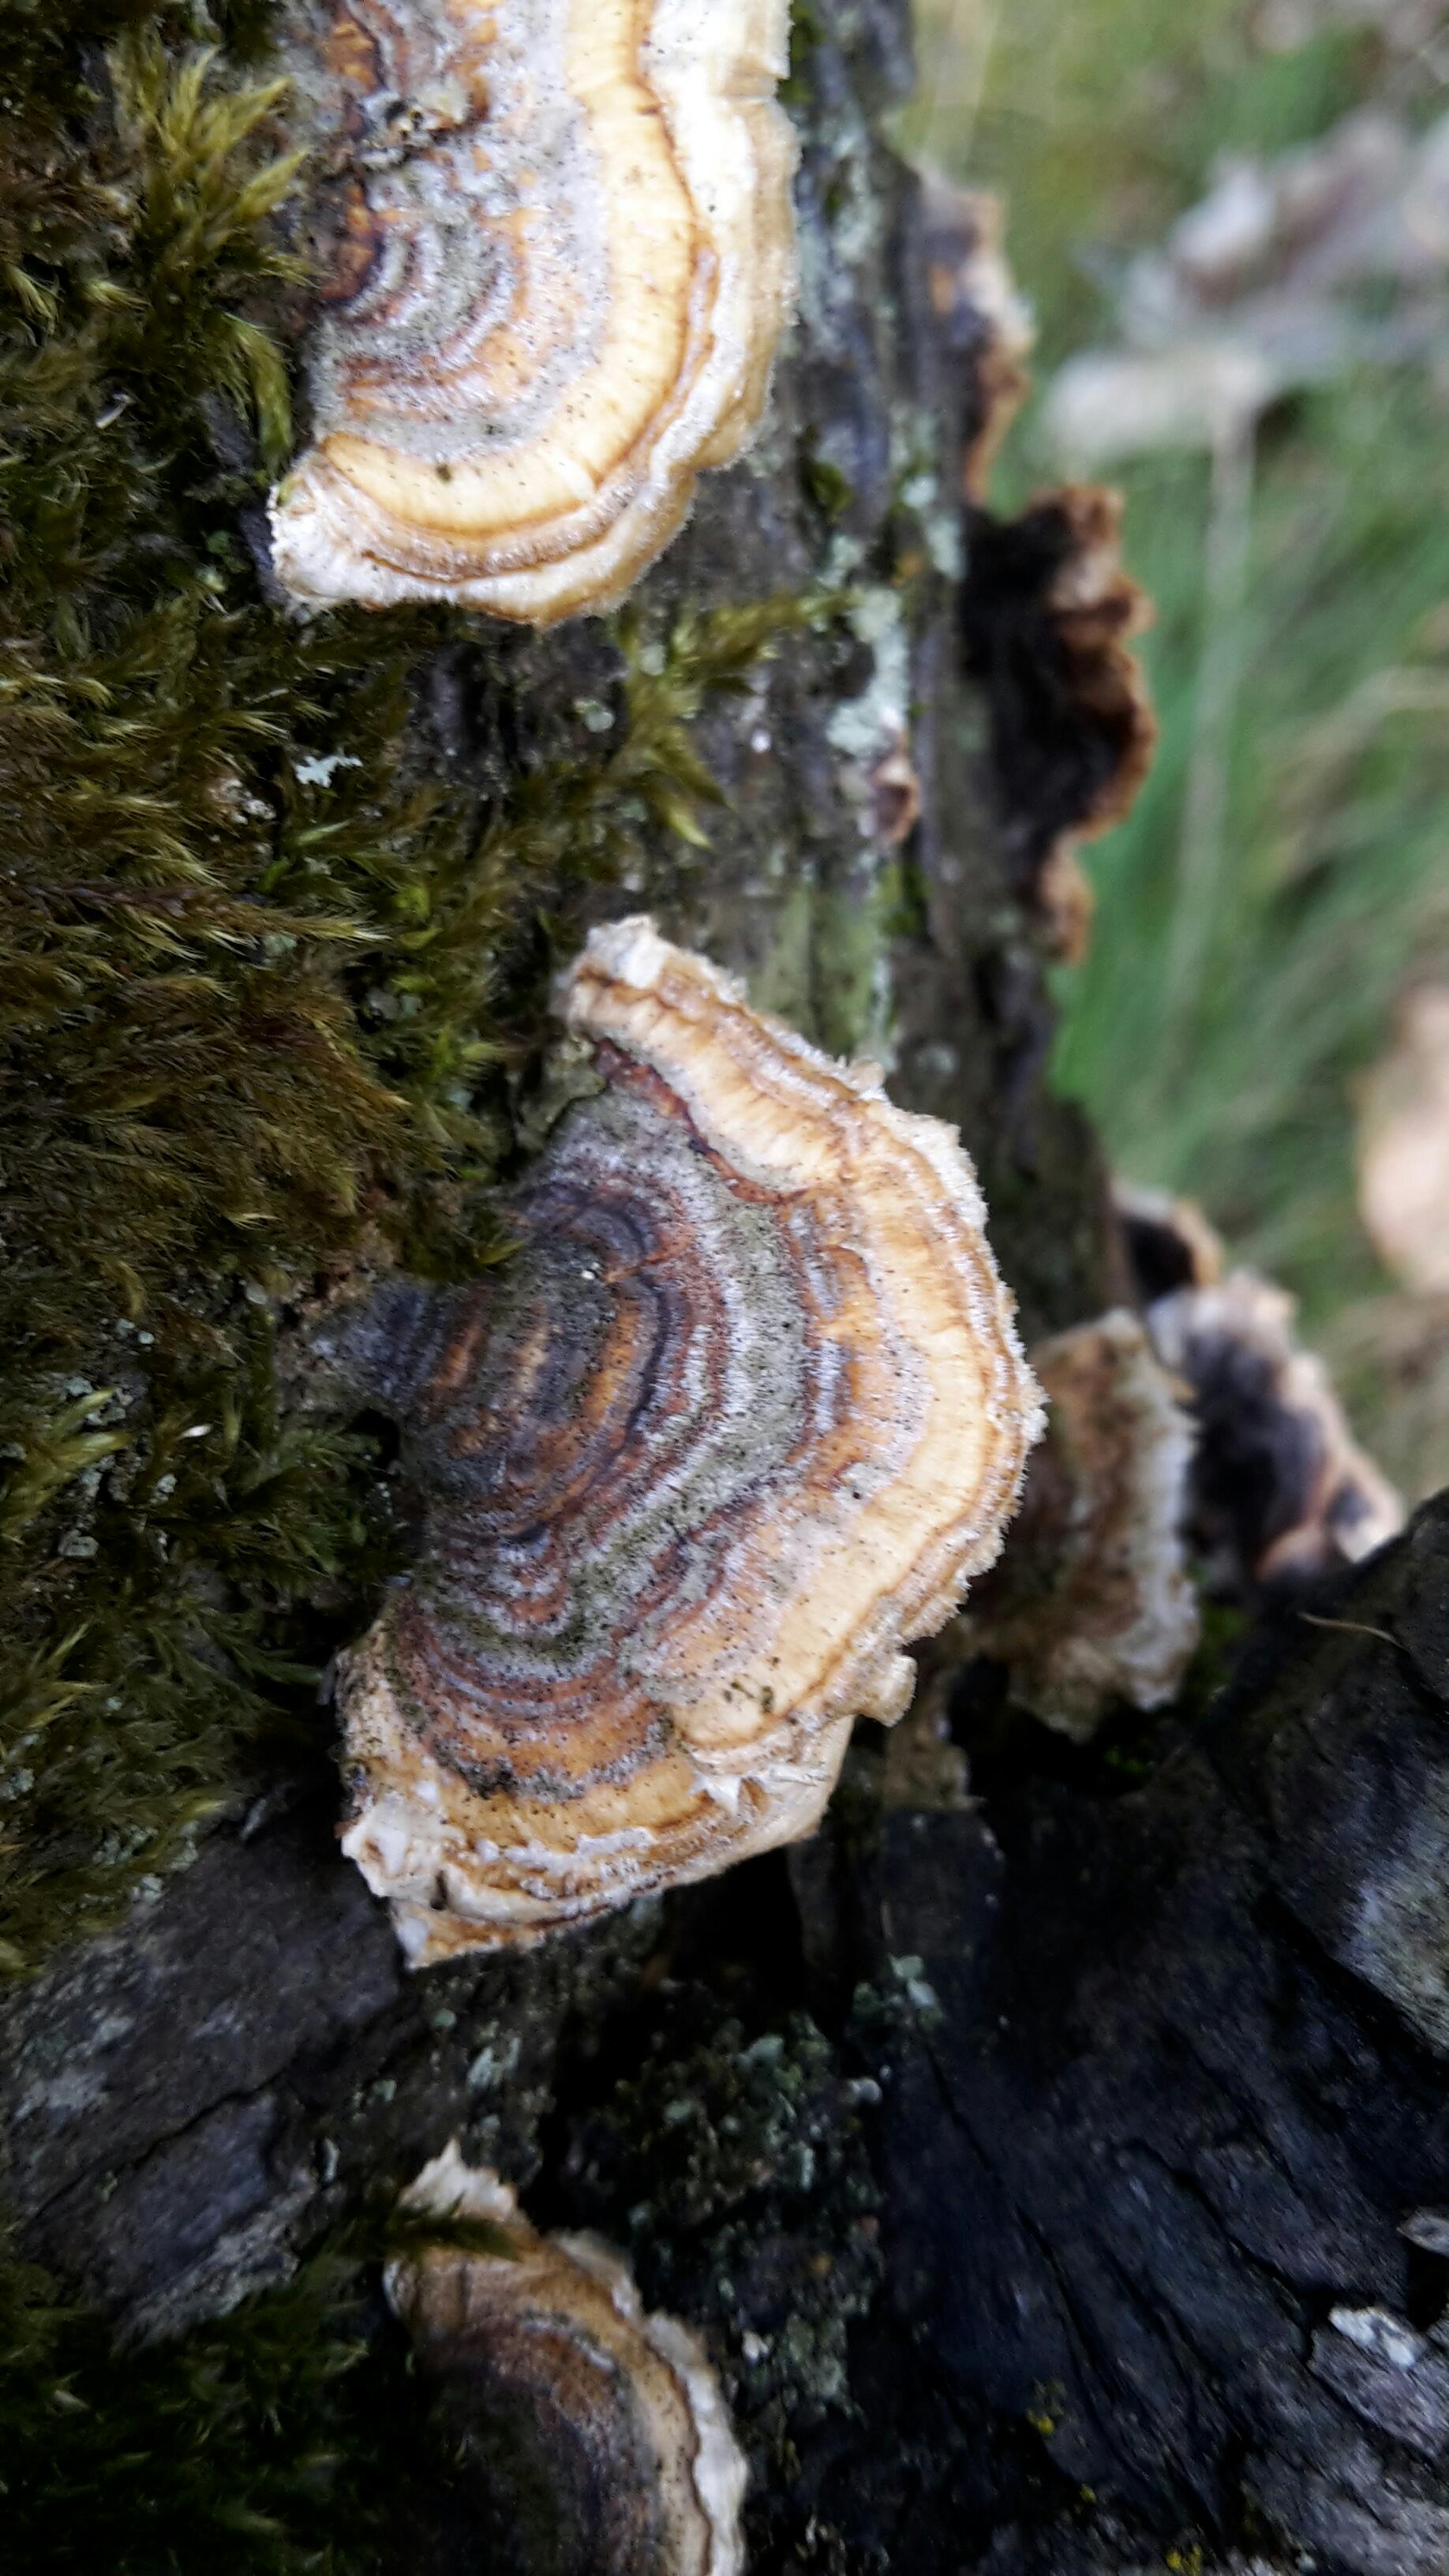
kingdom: Fungi
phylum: Basidiomycota
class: Agaricomycetes
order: Polyporales
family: Polyporaceae
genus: Trametes
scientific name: Trametes versicolor
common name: broget læderporesvamp
